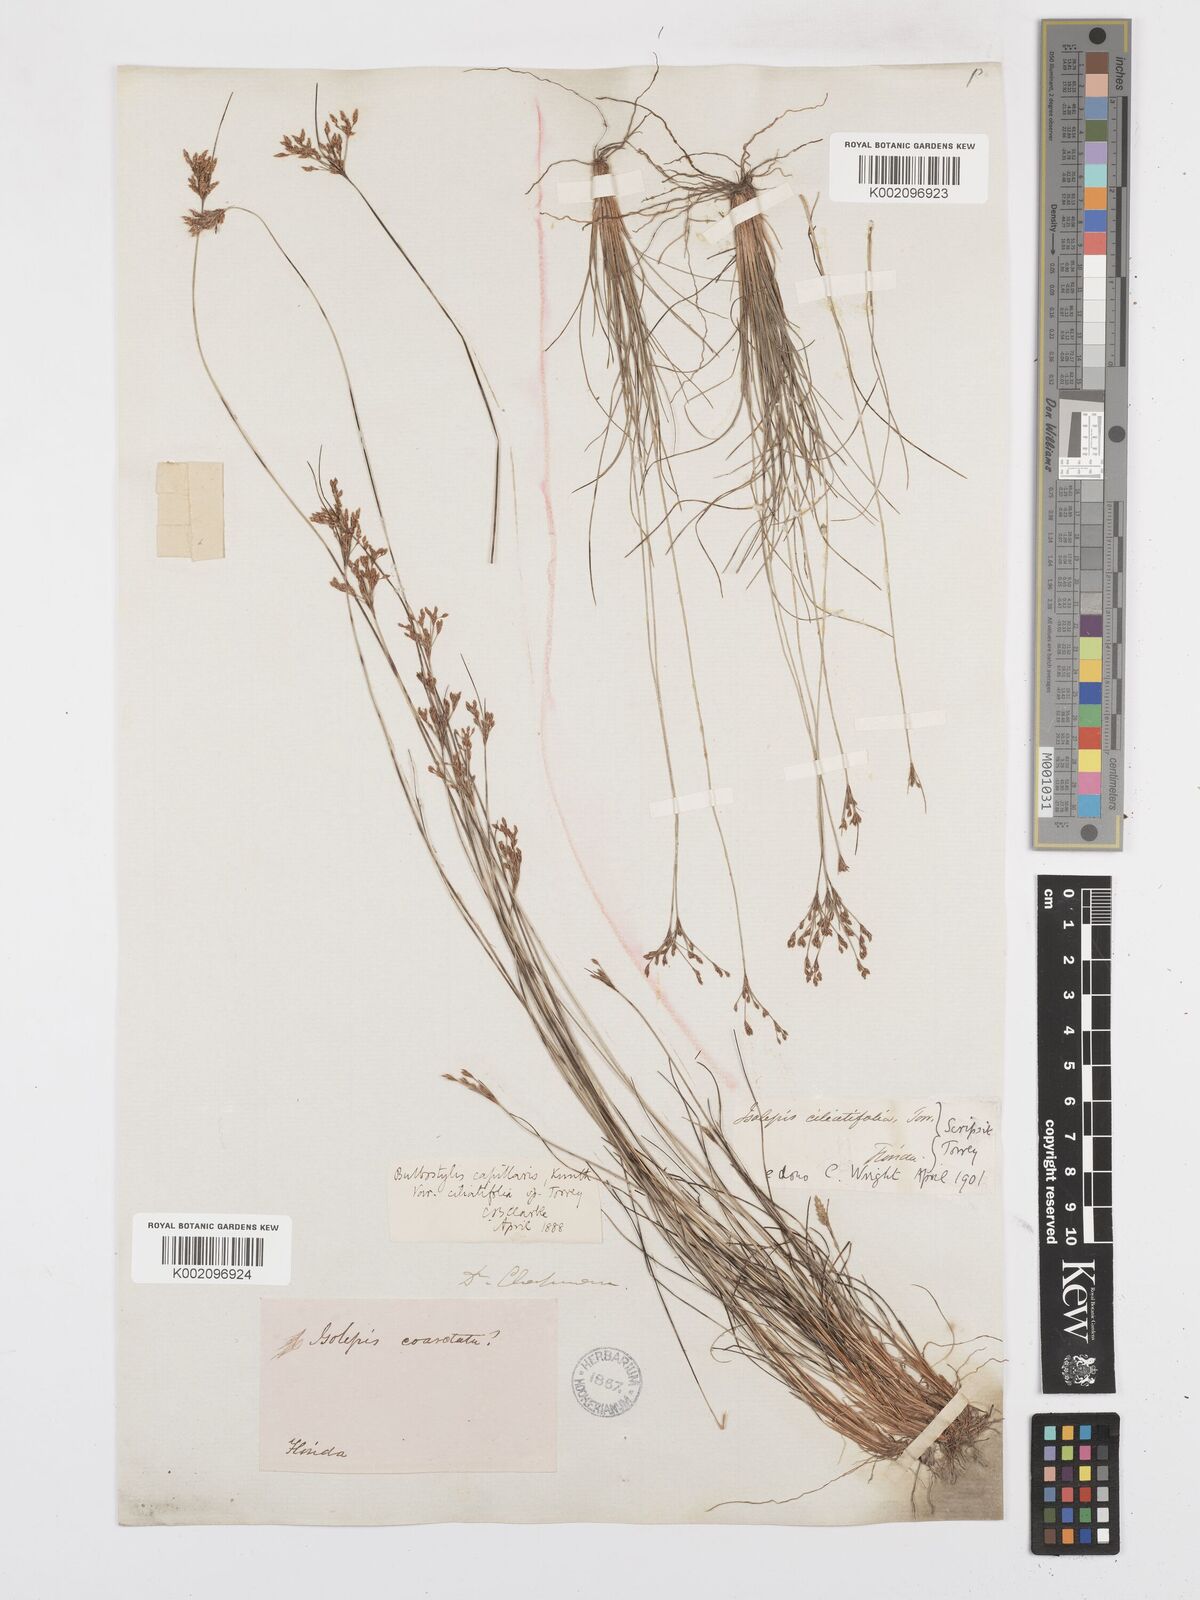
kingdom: Plantae
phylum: Tracheophyta
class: Liliopsida
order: Poales
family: Cyperaceae
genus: Bulbostylis
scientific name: Bulbostylis ciliatifolia
